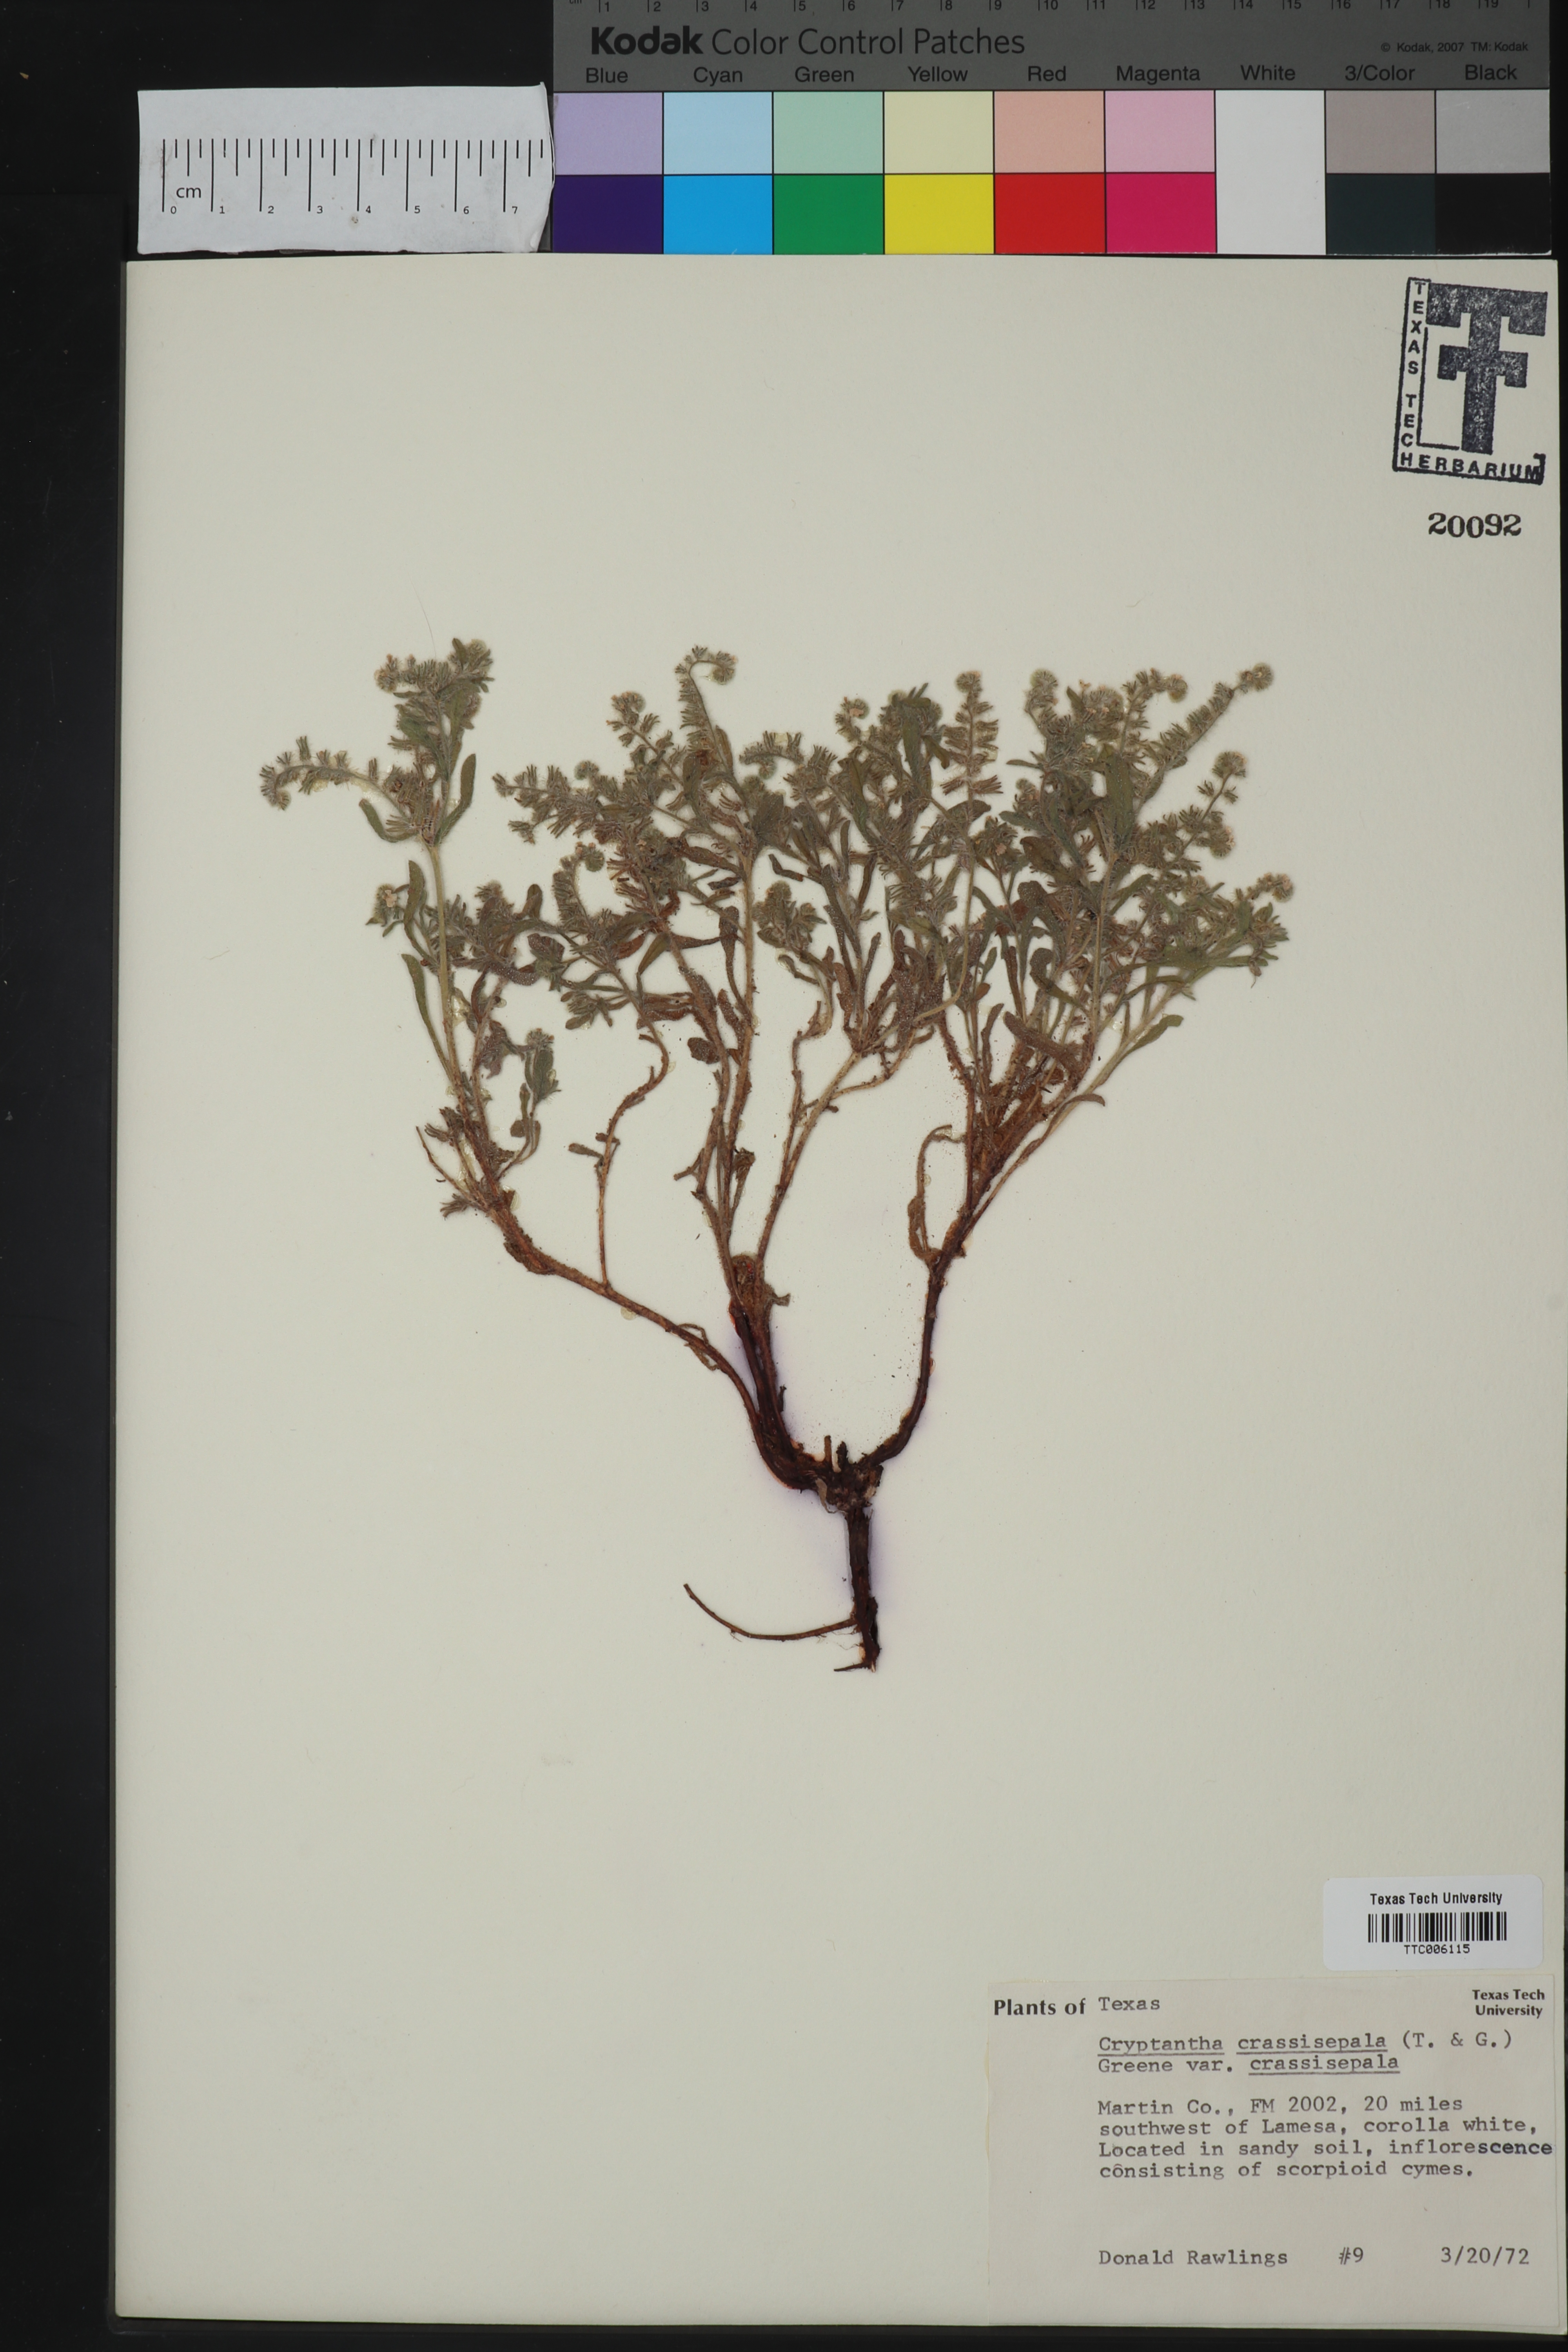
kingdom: Plantae
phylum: Tracheophyta
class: Magnoliopsida
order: Boraginales
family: Boraginaceae
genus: Cryptantha
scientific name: Cryptantha crassisepala
